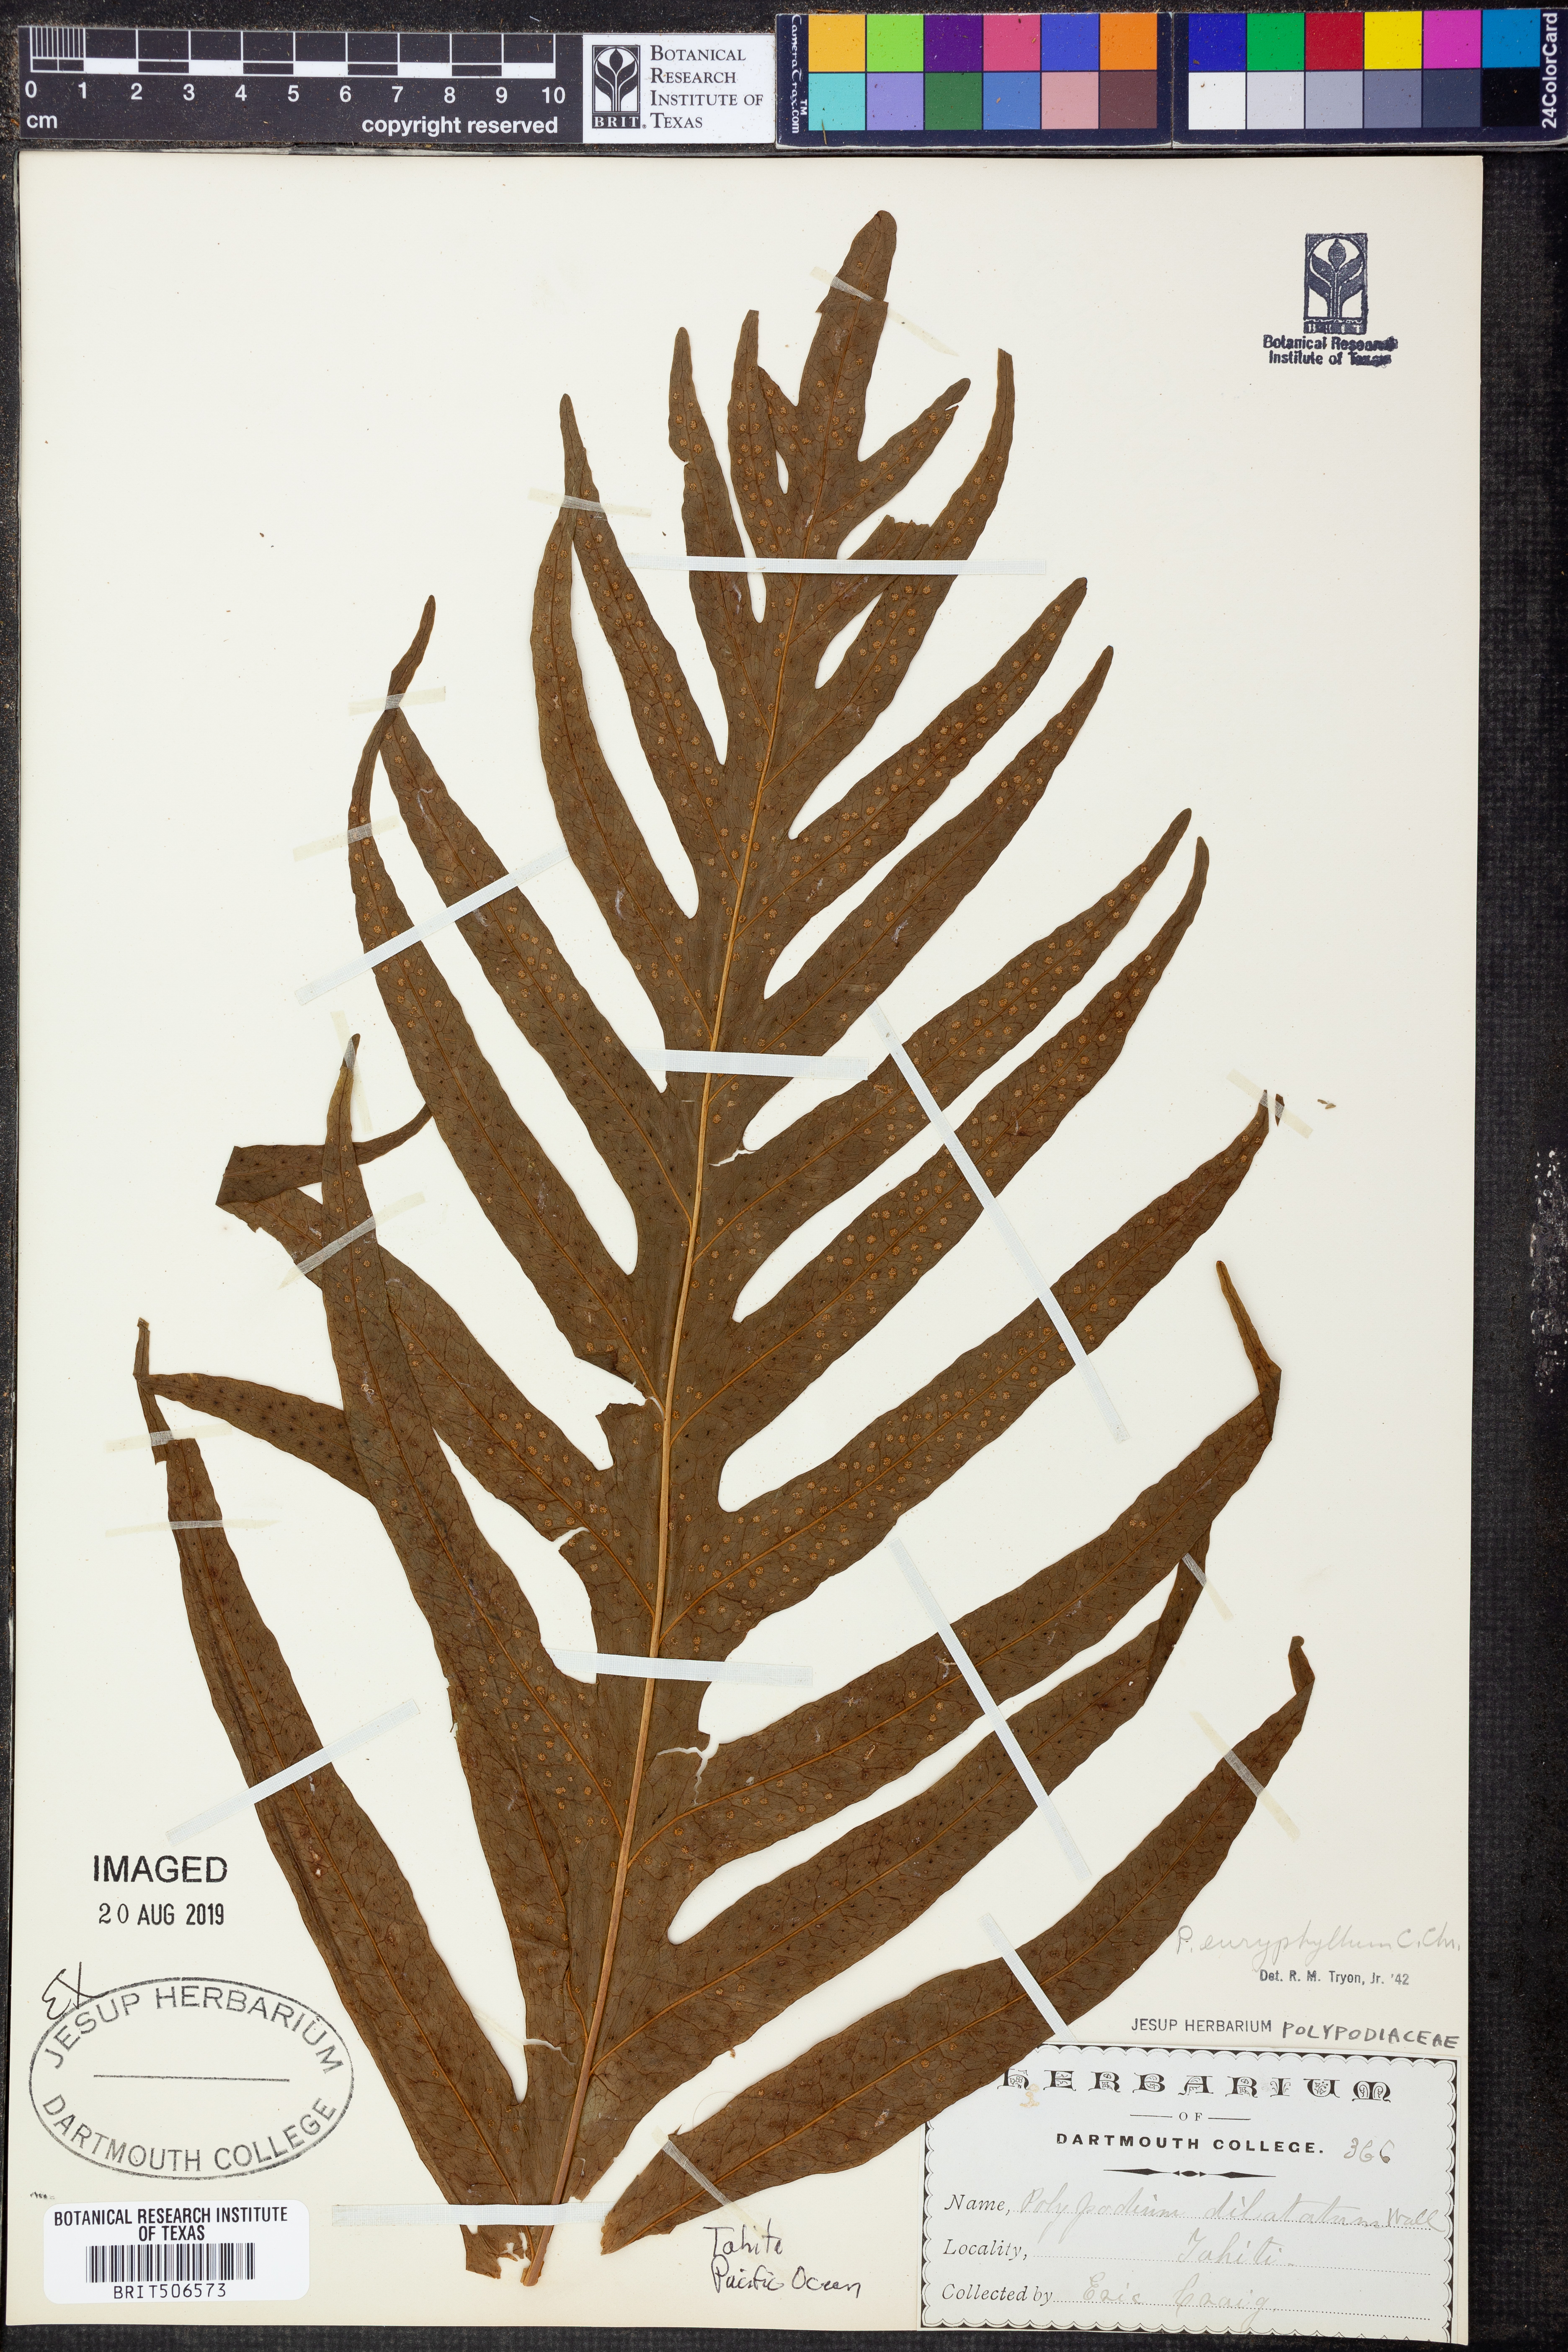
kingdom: Plantae
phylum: Tracheophyta
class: Polypodiopsida
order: Polypodiales
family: Polypodiaceae
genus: Microsorum
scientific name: Microsorum commutatum
